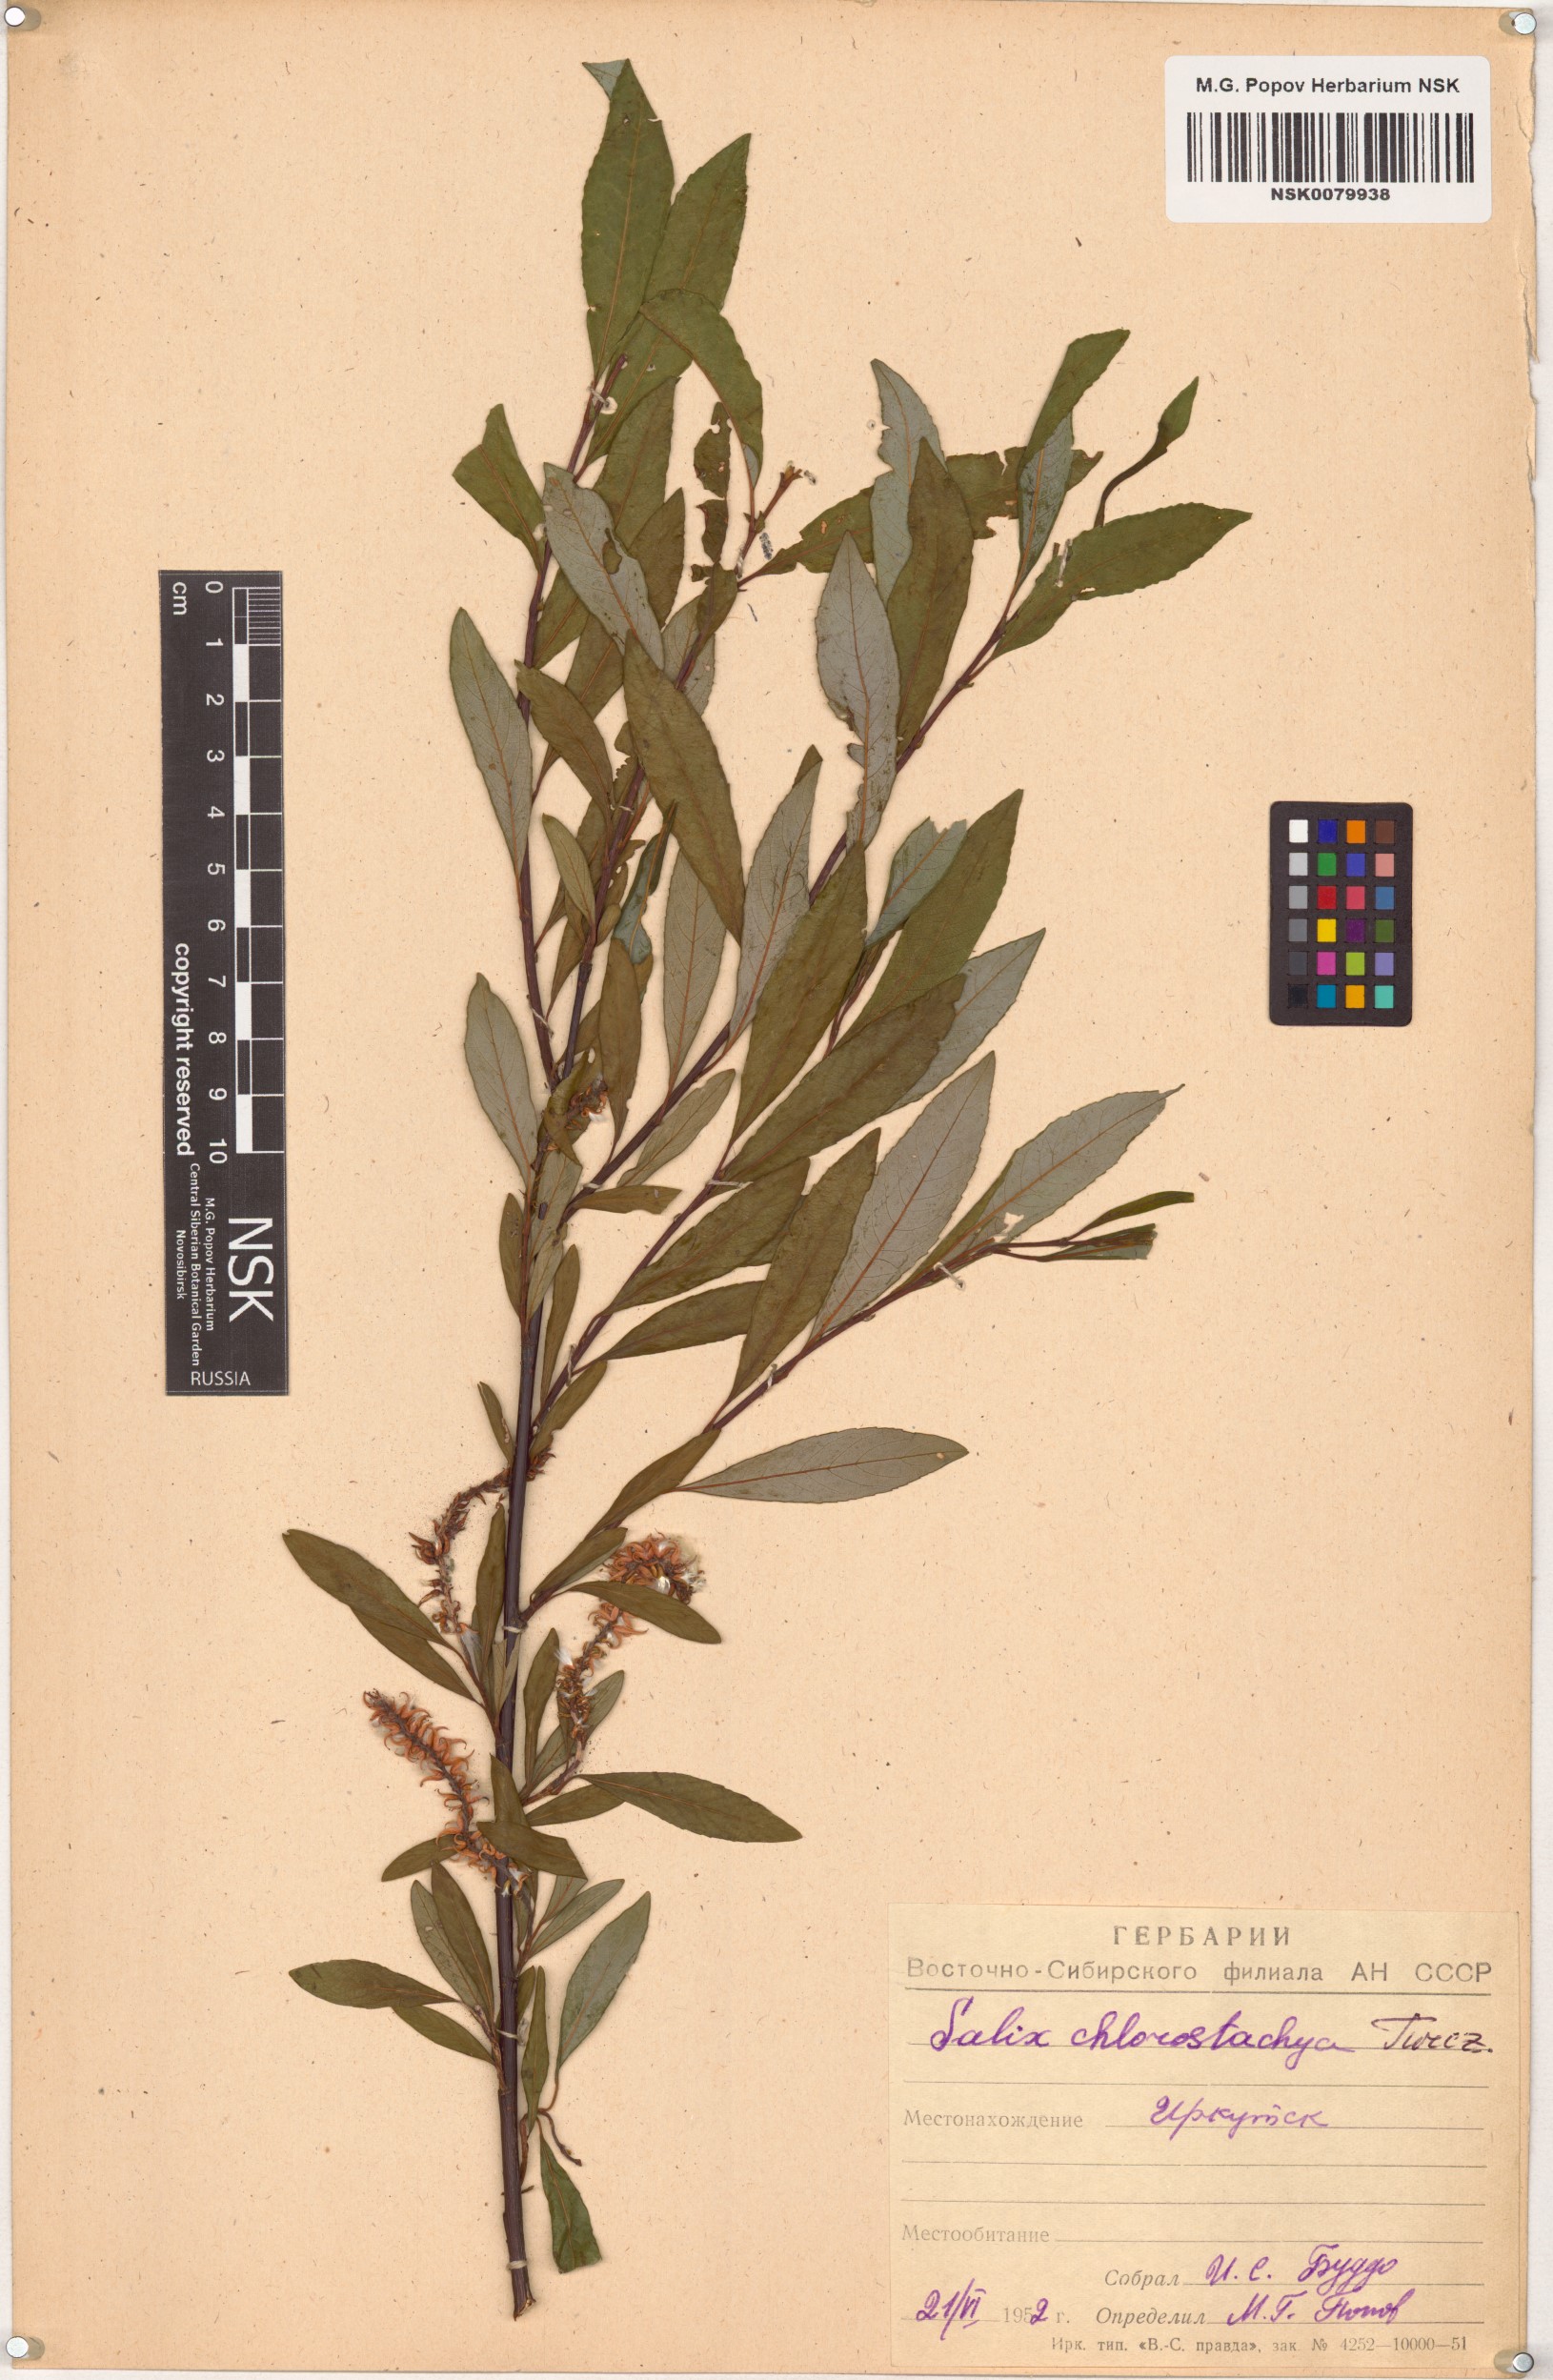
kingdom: Plantae
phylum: Tracheophyta
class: Magnoliopsida
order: Malpighiales
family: Salicaceae
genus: Salix
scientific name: Salix rhamnifolia
